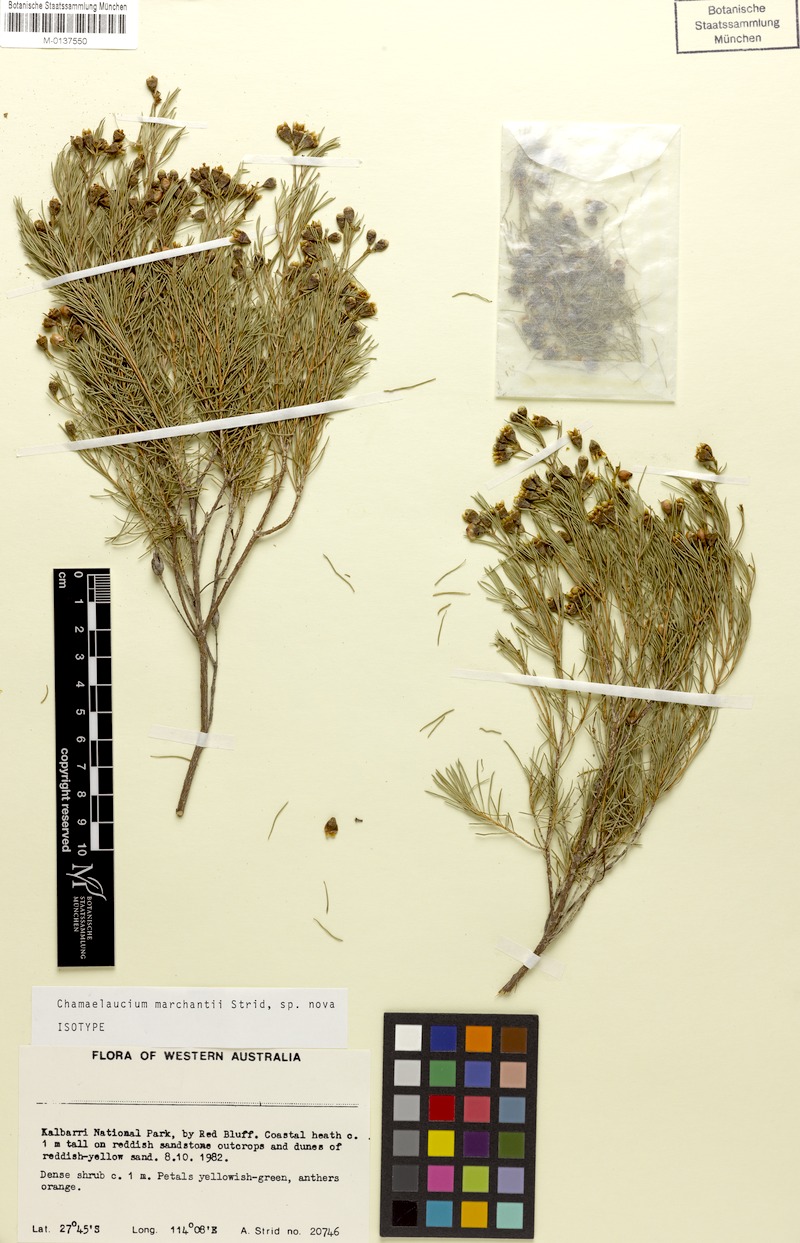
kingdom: Plantae
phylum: Tracheophyta
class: Magnoliopsida
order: Myrtales
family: Myrtaceae
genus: Chamelaucium
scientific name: Chamelaucium marchantii
